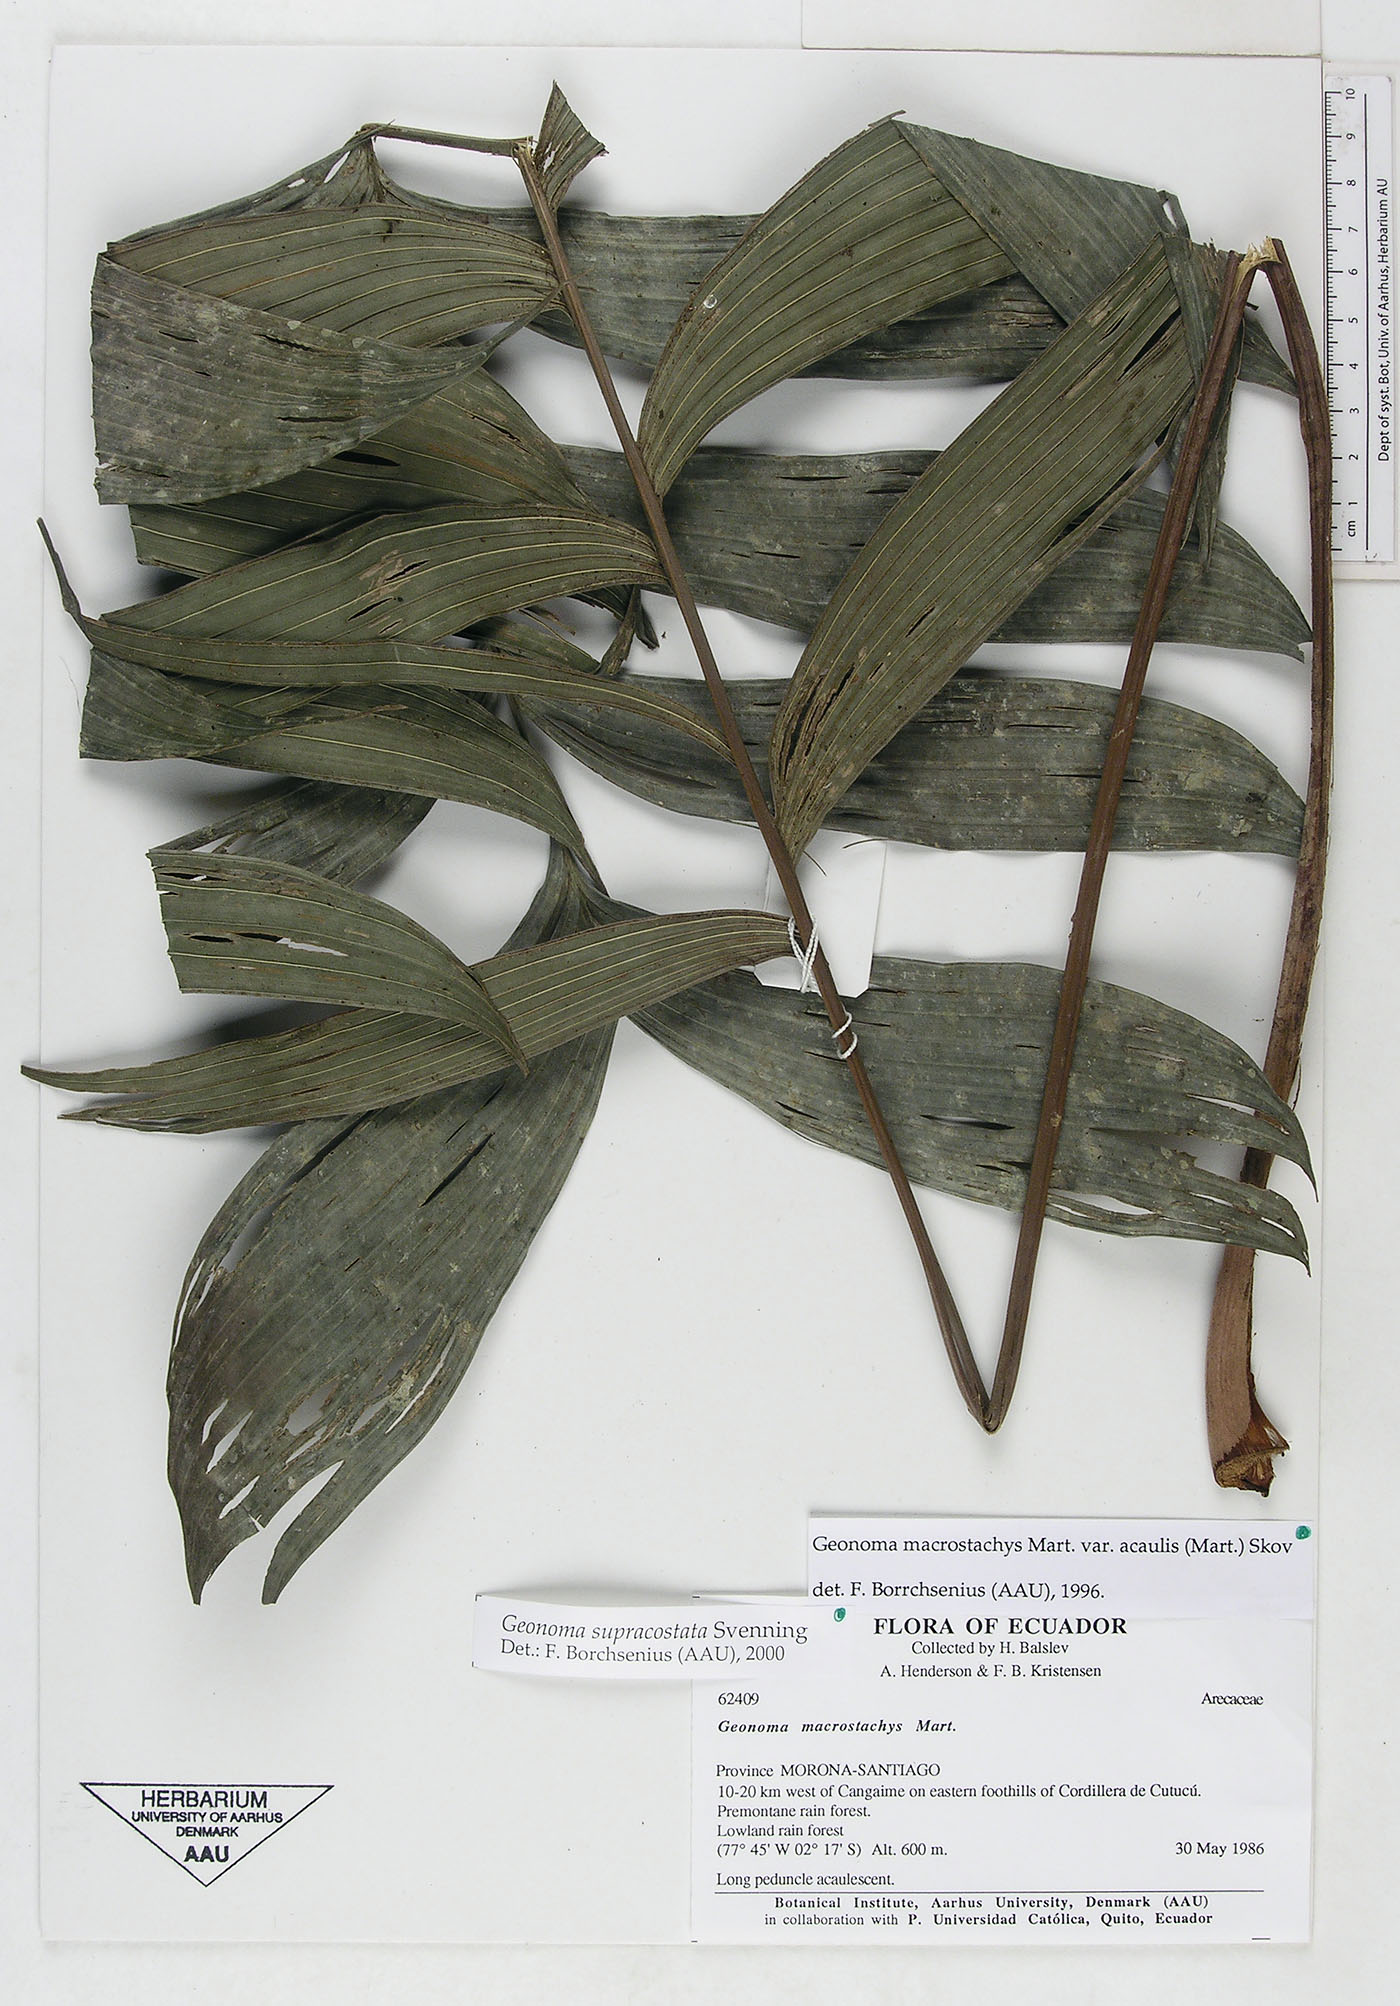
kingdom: Plantae
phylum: Tracheophyta
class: Liliopsida
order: Arecales
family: Arecaceae
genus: Geonoma
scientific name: Geonoma macrostachys
